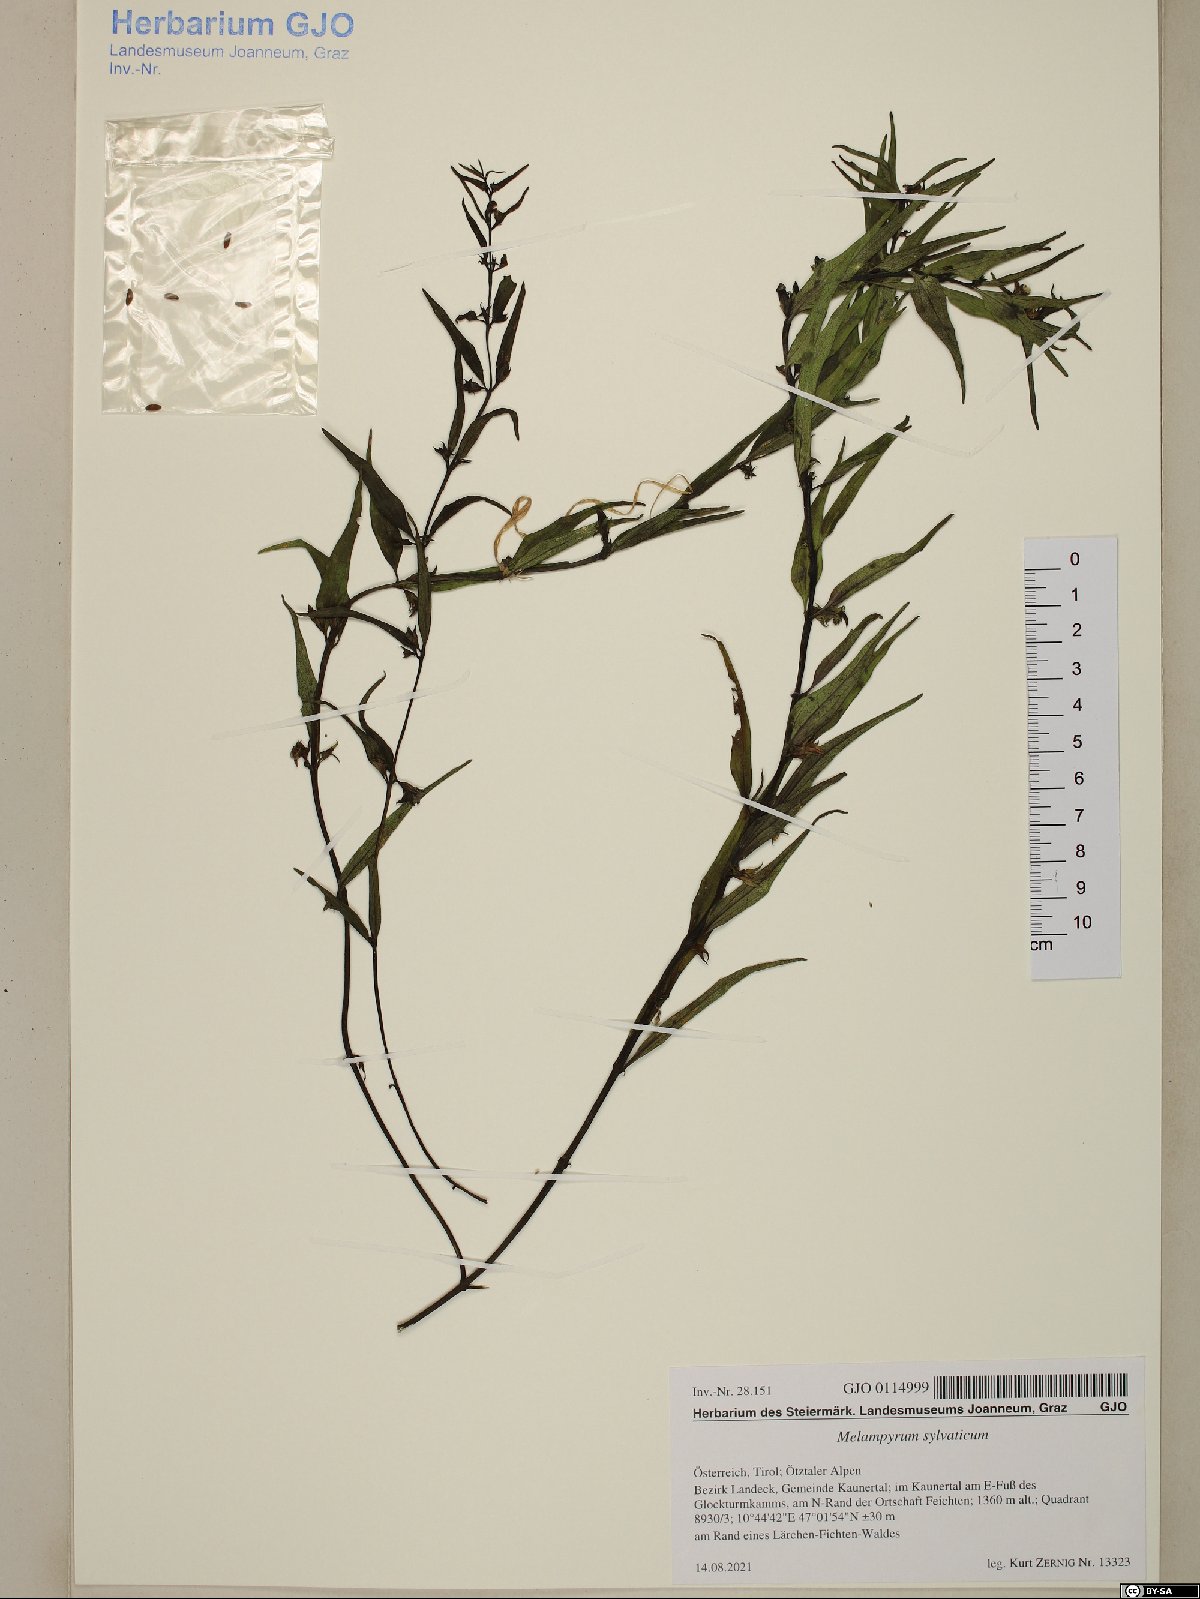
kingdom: Plantae
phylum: Tracheophyta
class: Magnoliopsida
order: Lamiales
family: Orobanchaceae
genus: Melampyrum
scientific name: Melampyrum sylvaticum
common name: Small cow-wheat
